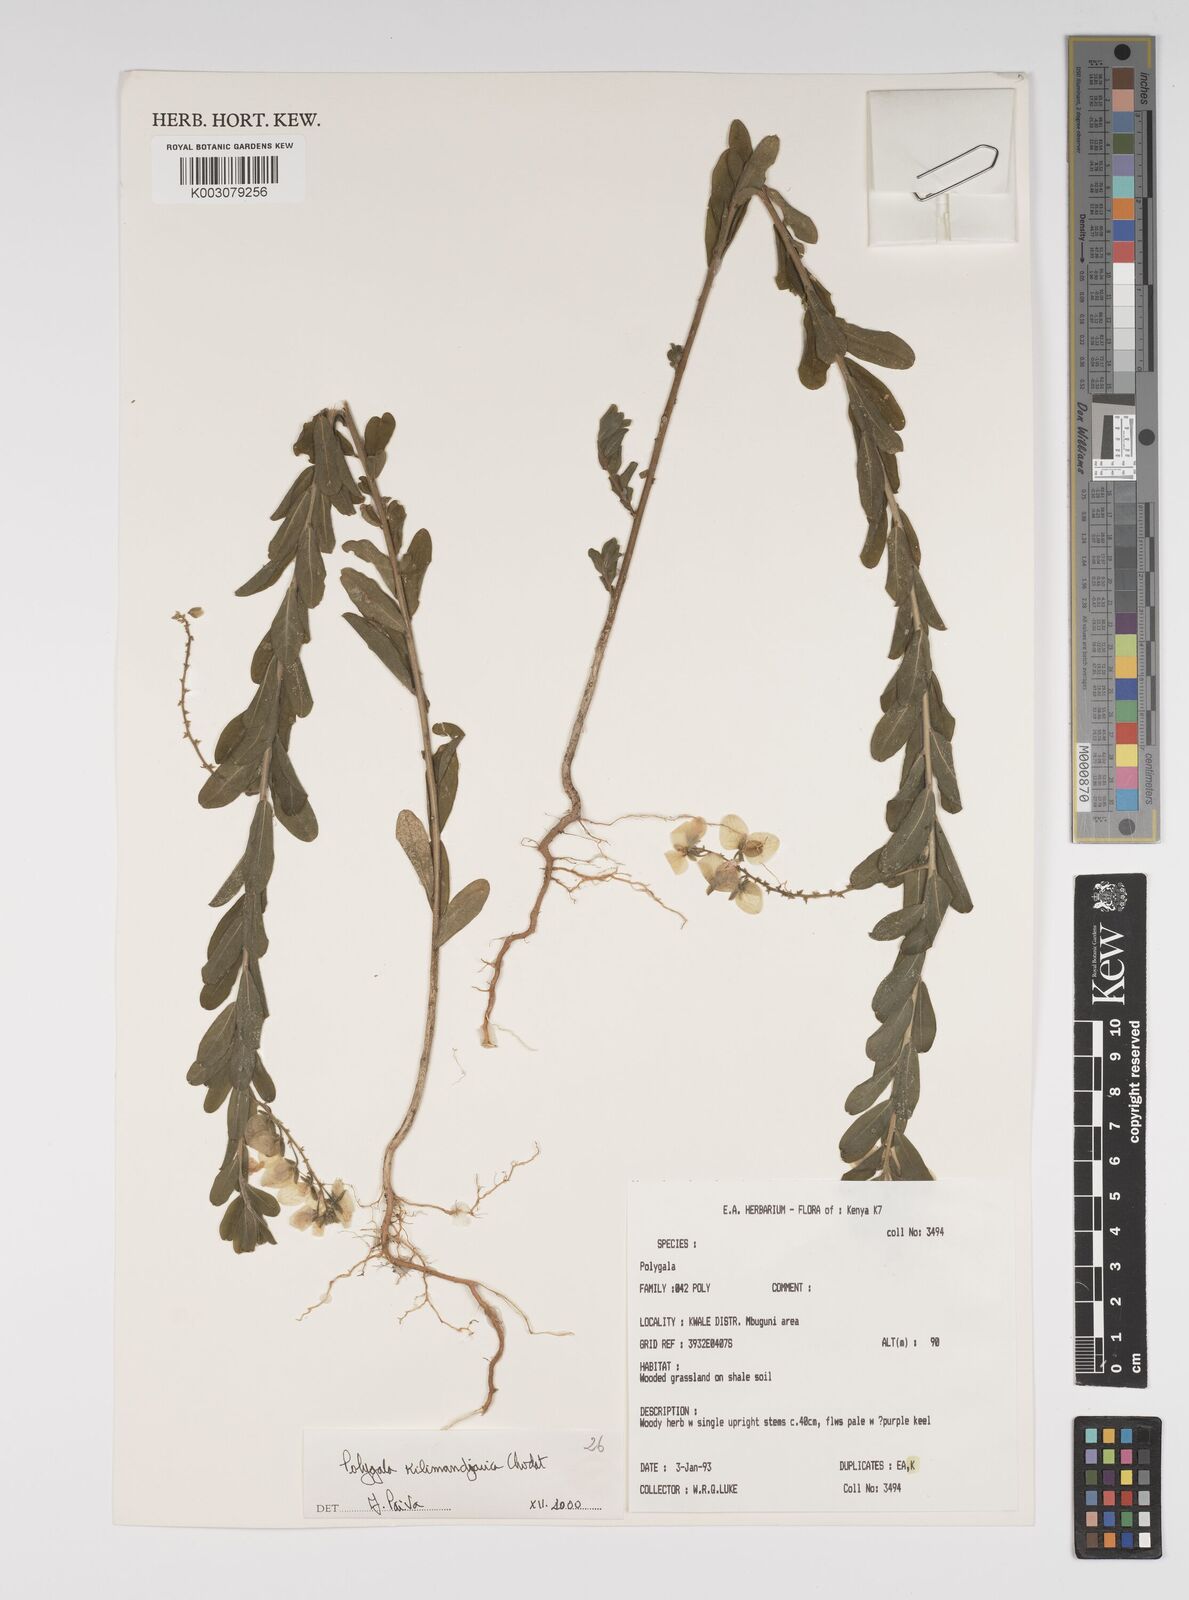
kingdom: Plantae
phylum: Tracheophyta
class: Magnoliopsida
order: Fabales
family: Polygalaceae
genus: Polygala
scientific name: Polygala kilimandjarica
